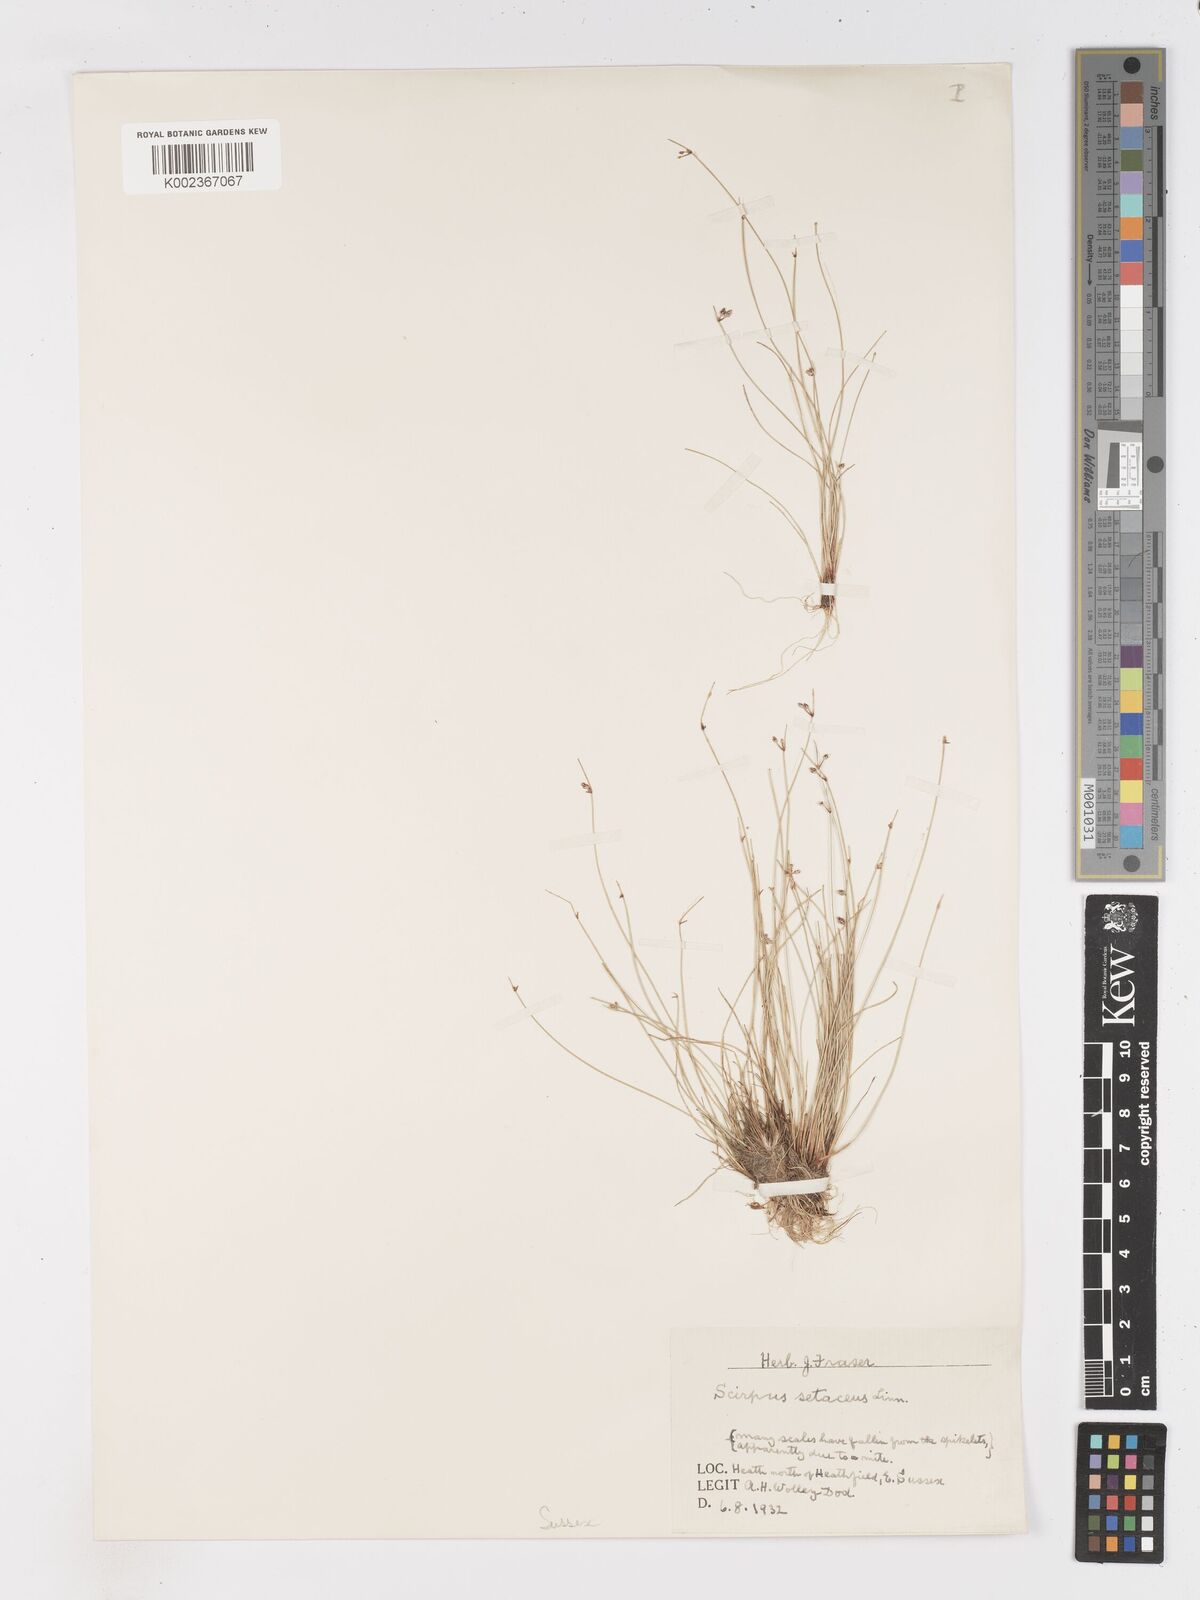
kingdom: Plantae
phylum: Tracheophyta
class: Liliopsida
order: Poales
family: Cyperaceae
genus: Isolepis
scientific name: Isolepis setacea
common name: Bristle club-rush
